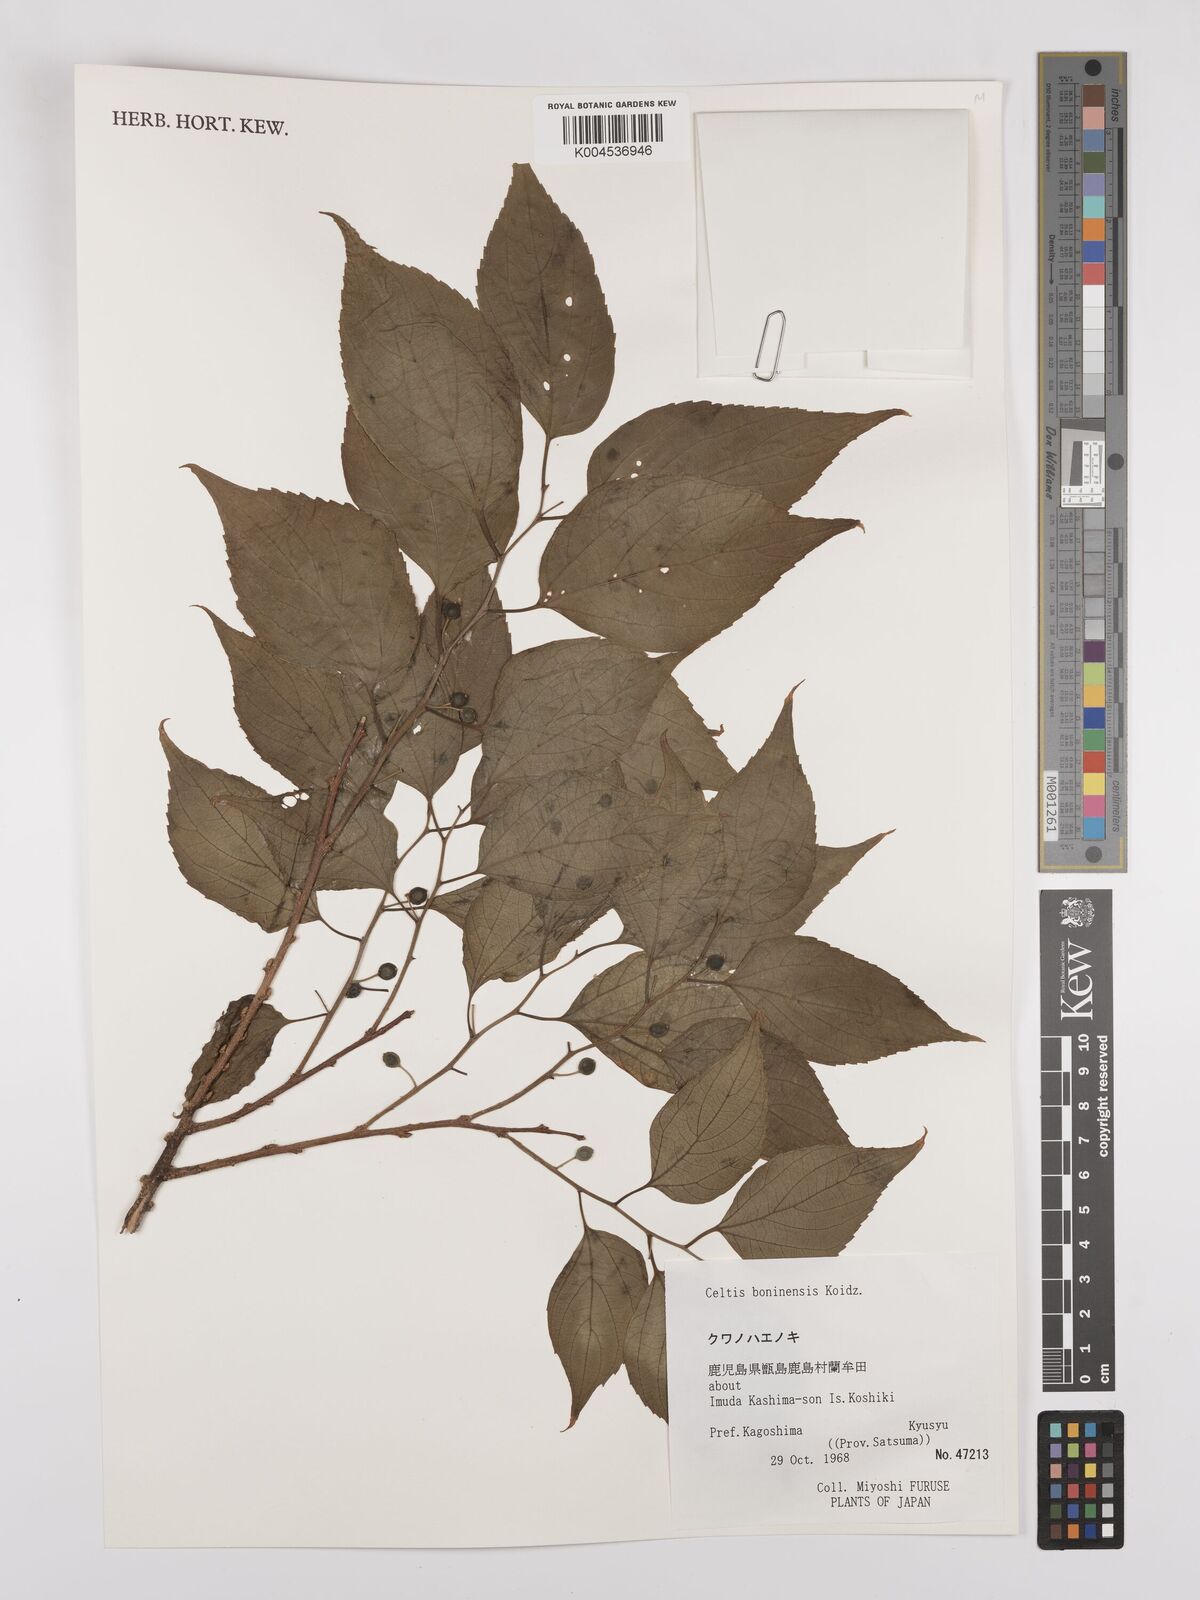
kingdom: Plantae
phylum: Tracheophyta
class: Magnoliopsida
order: Rosales
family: Cannabaceae
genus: Celtis
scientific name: Celtis boninensis
